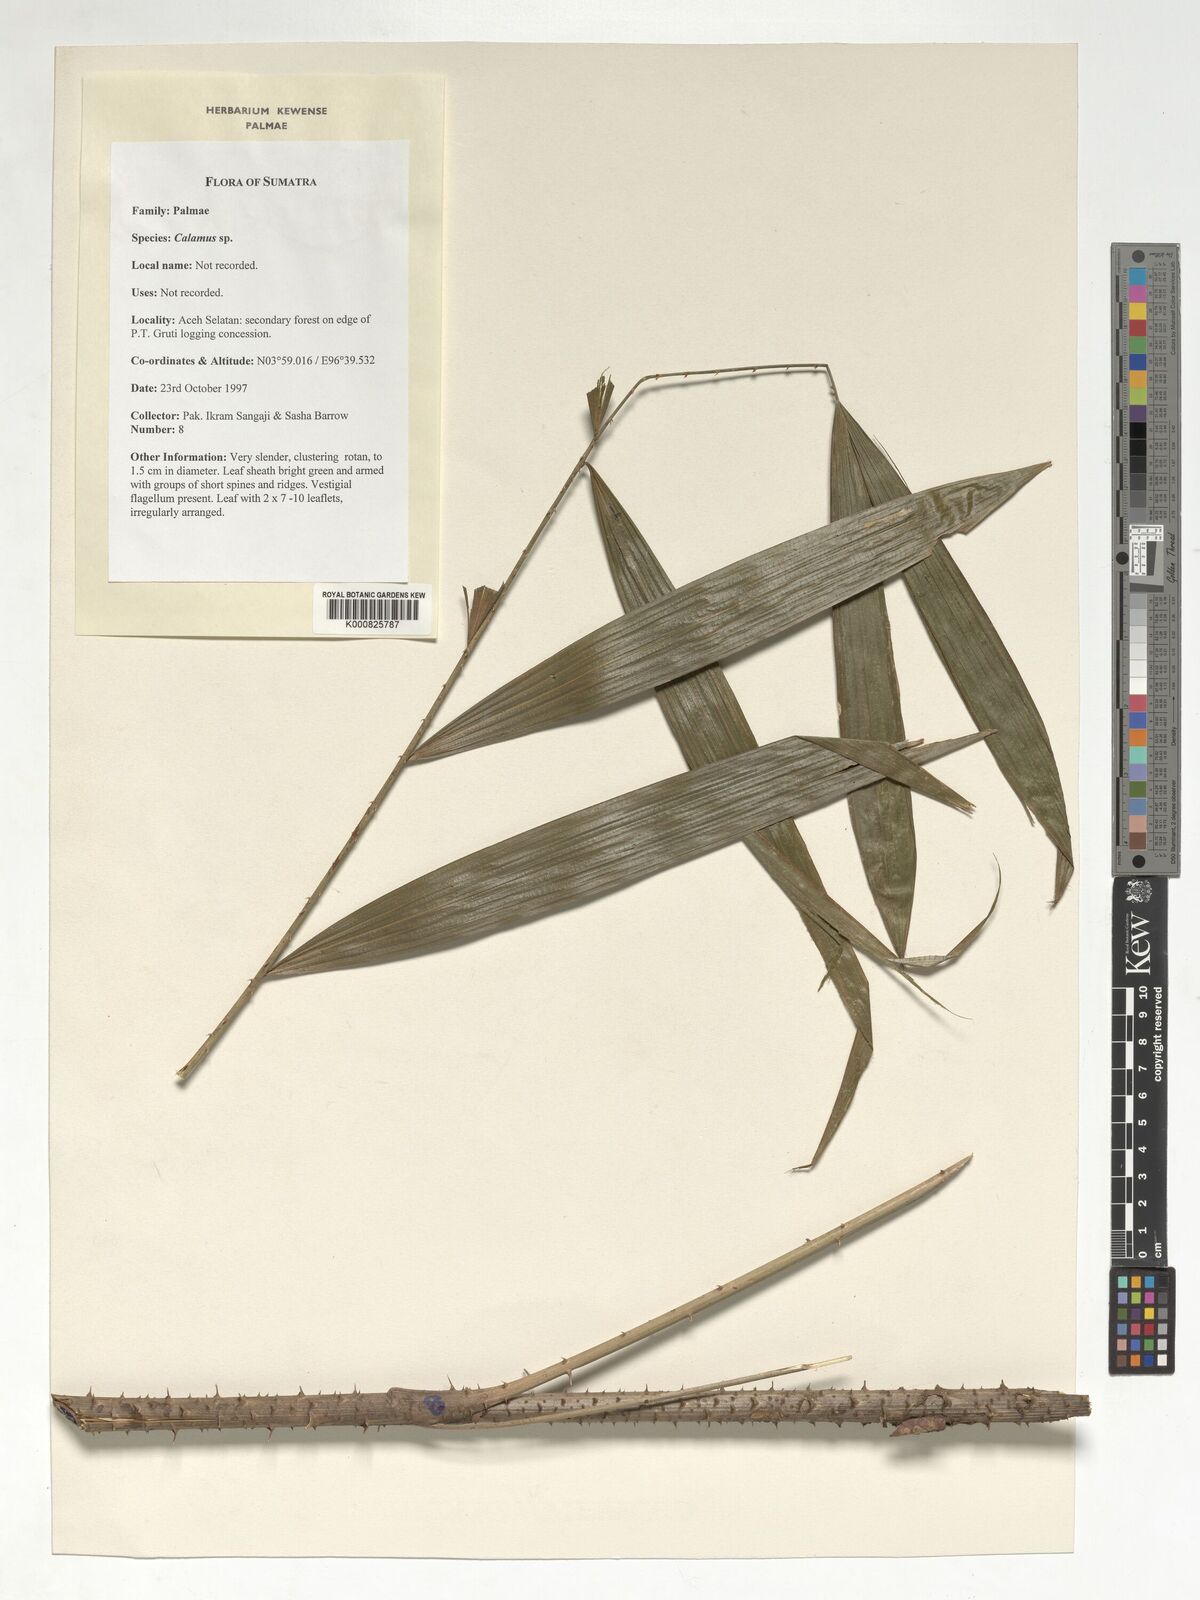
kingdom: Plantae
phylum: Tracheophyta
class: Liliopsida
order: Arecales
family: Arecaceae
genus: Calamus
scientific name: Calamus
